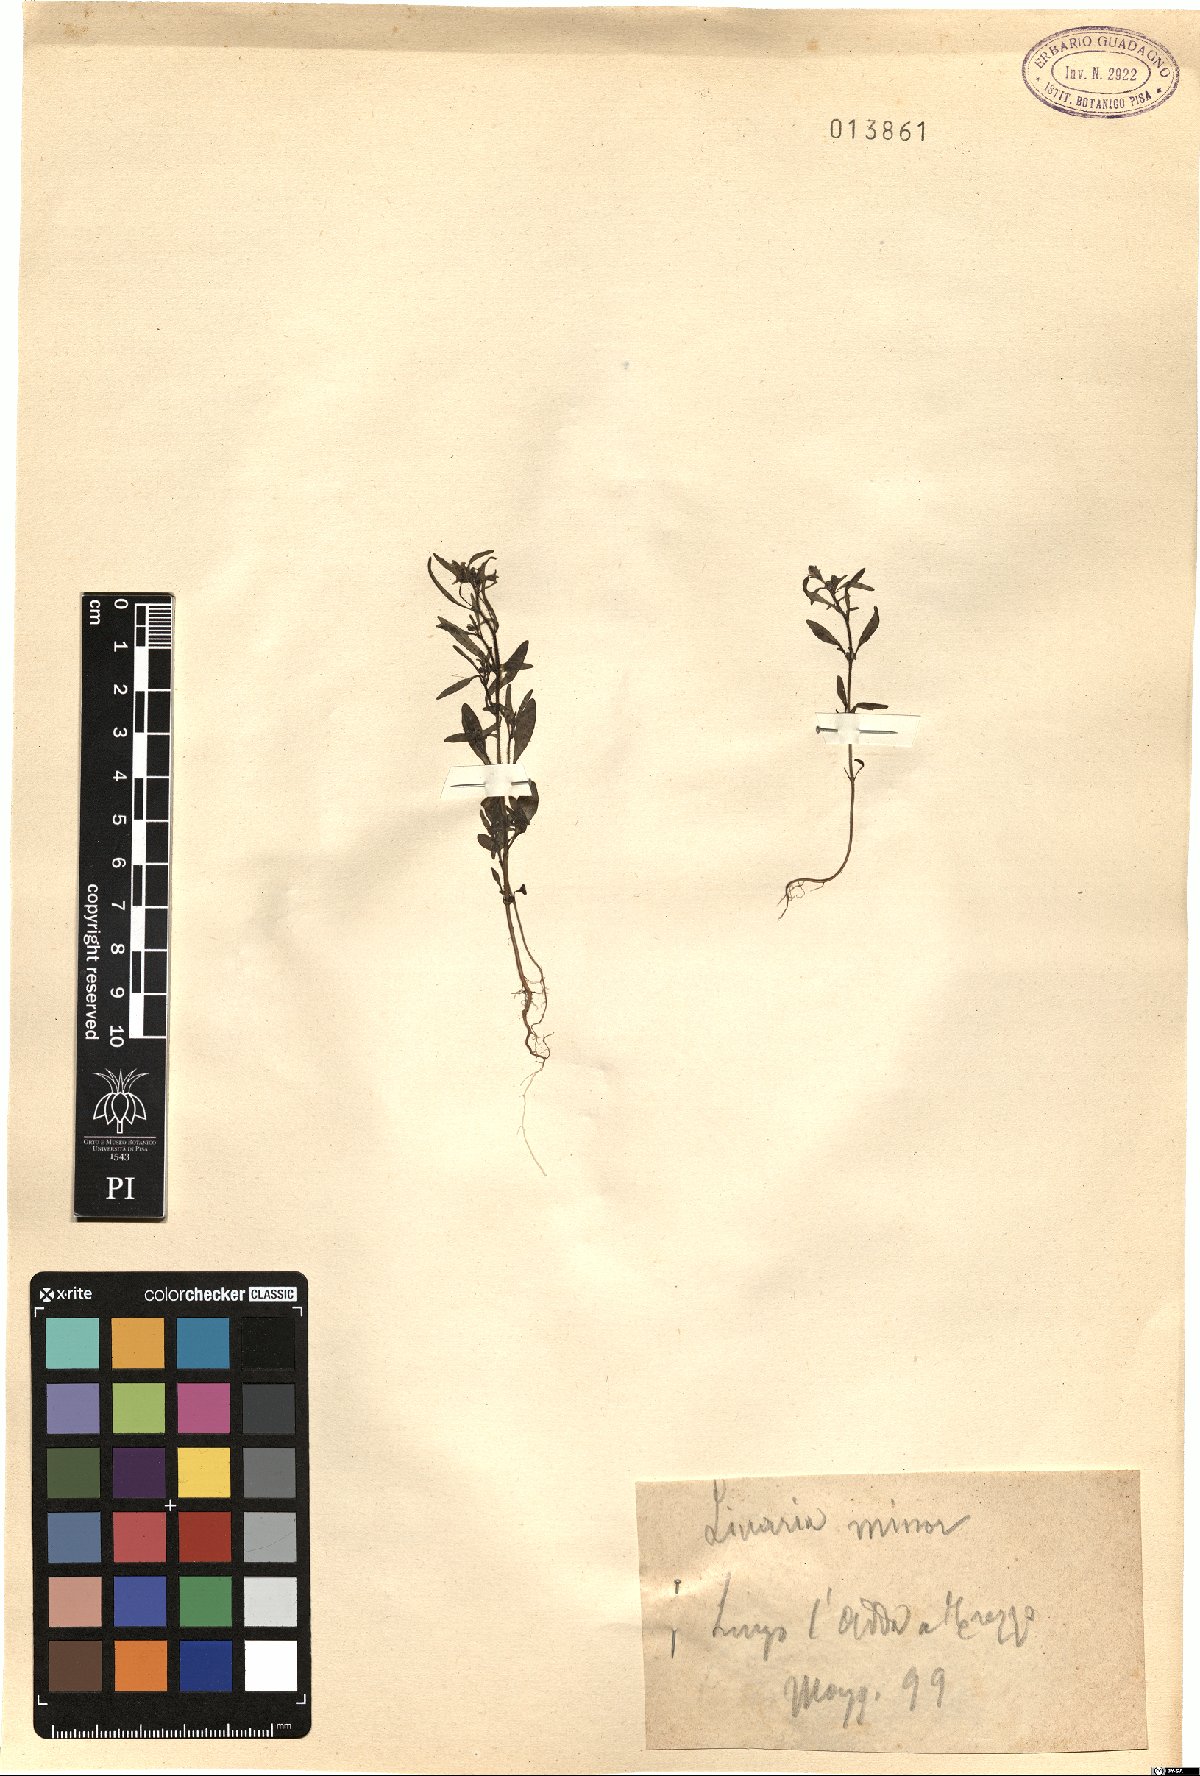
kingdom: Plantae
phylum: Tracheophyta
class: Magnoliopsida
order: Lamiales
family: Plantaginaceae
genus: Chaenorhinum
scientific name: Chaenorhinum minus
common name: Dwarf snapdragon
